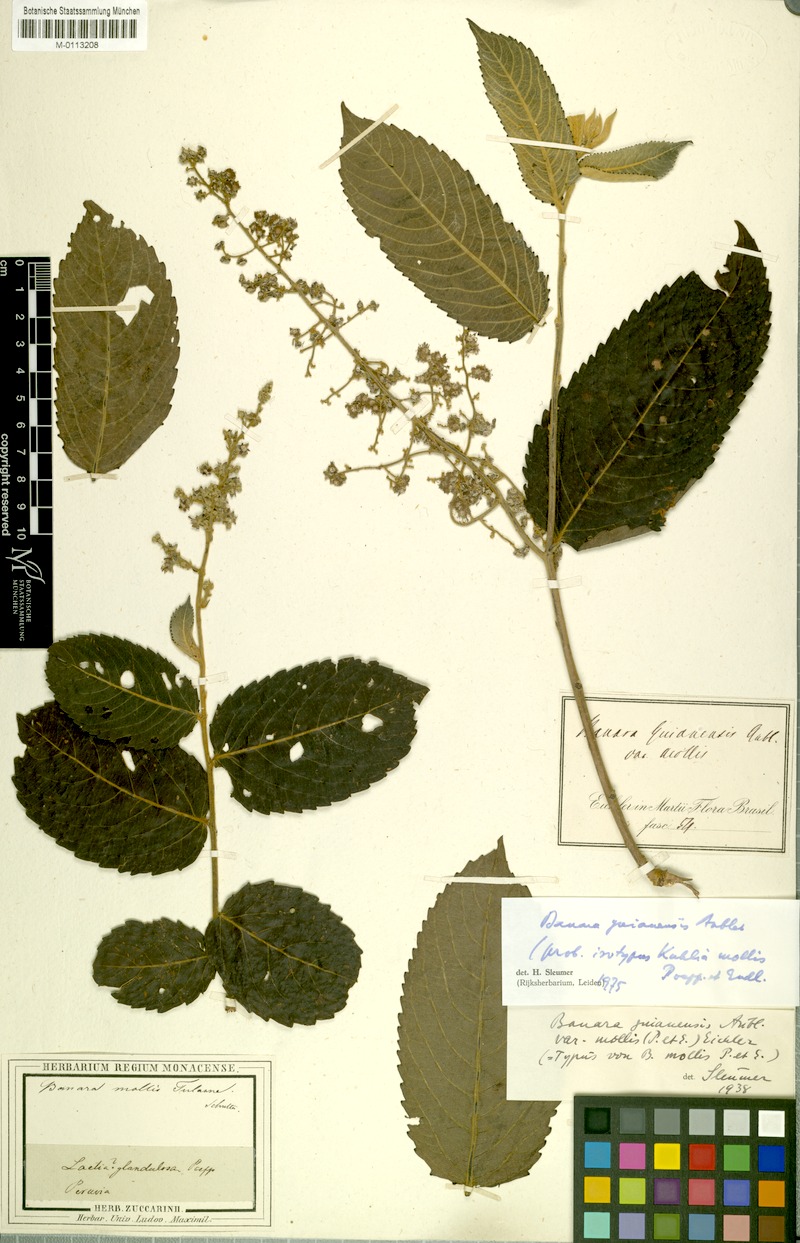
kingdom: Plantae
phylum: Tracheophyta
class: Magnoliopsida
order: Malpighiales
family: Salicaceae
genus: Banara
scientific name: Banara guianensis
